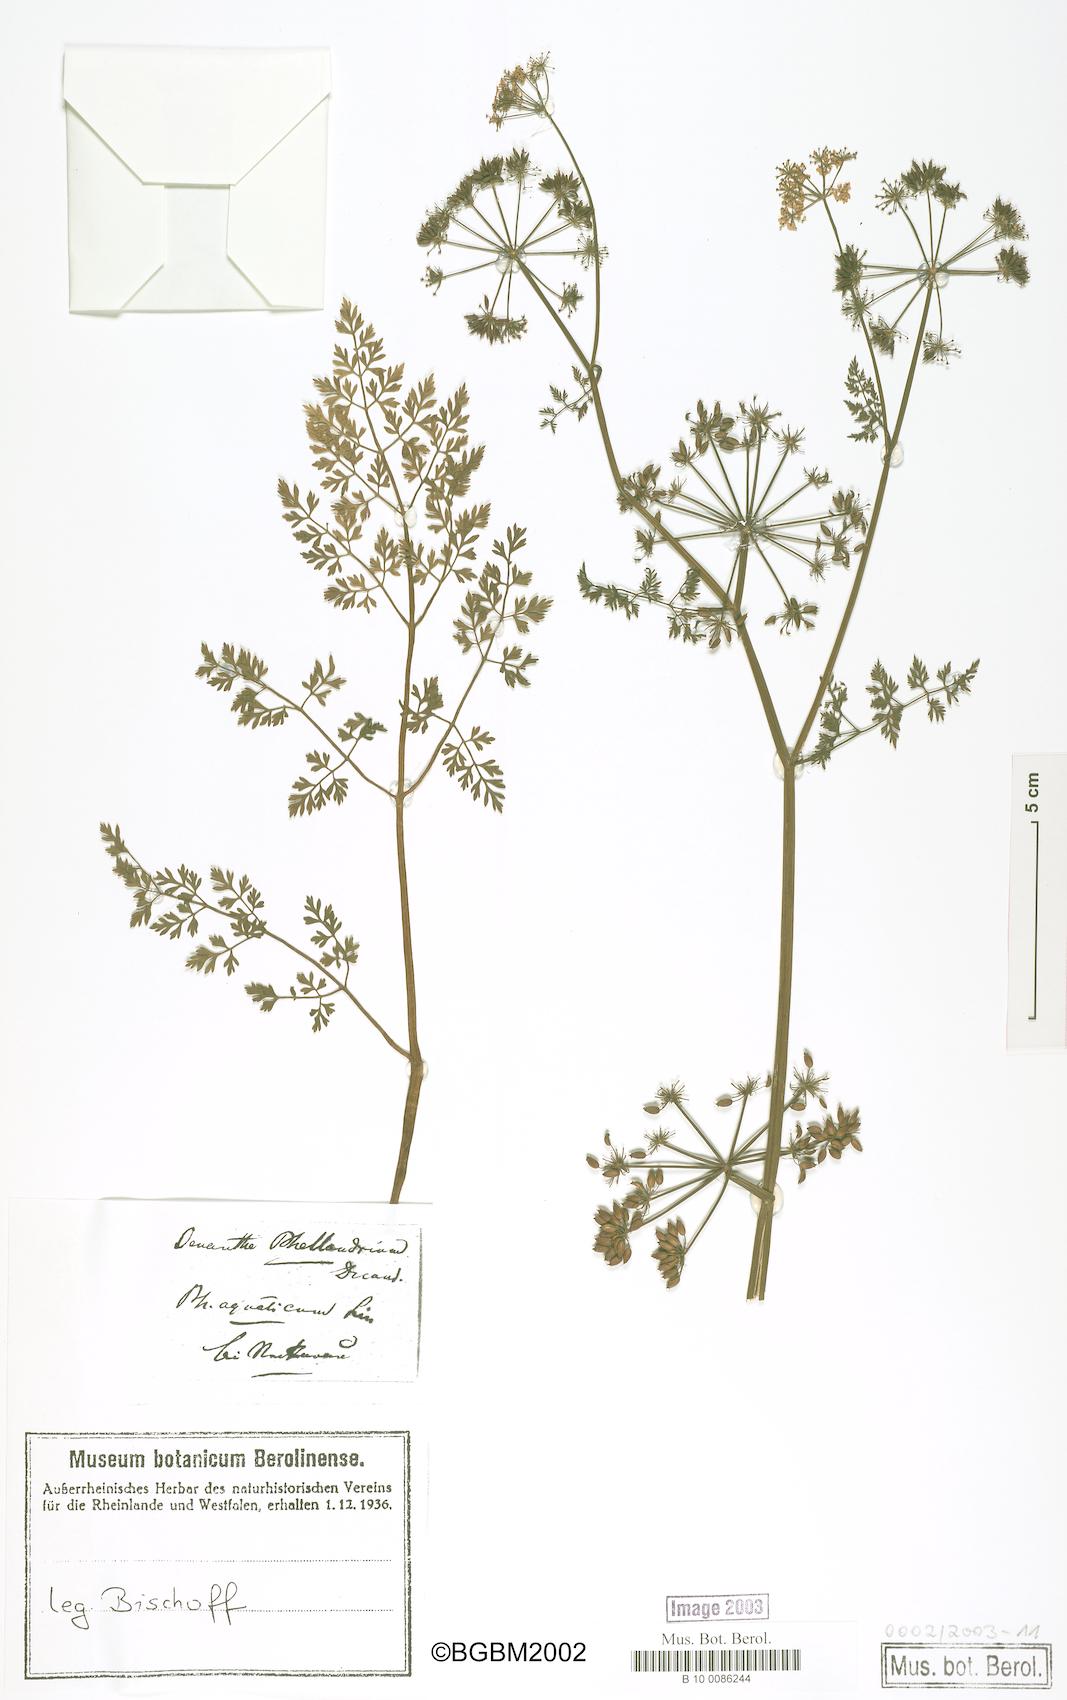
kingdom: Plantae
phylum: Tracheophyta
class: Magnoliopsida
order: Apiales
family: Apiaceae
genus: Oenanthe
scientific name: Oenanthe aquatica
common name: Fine-leaved water-dropwort
